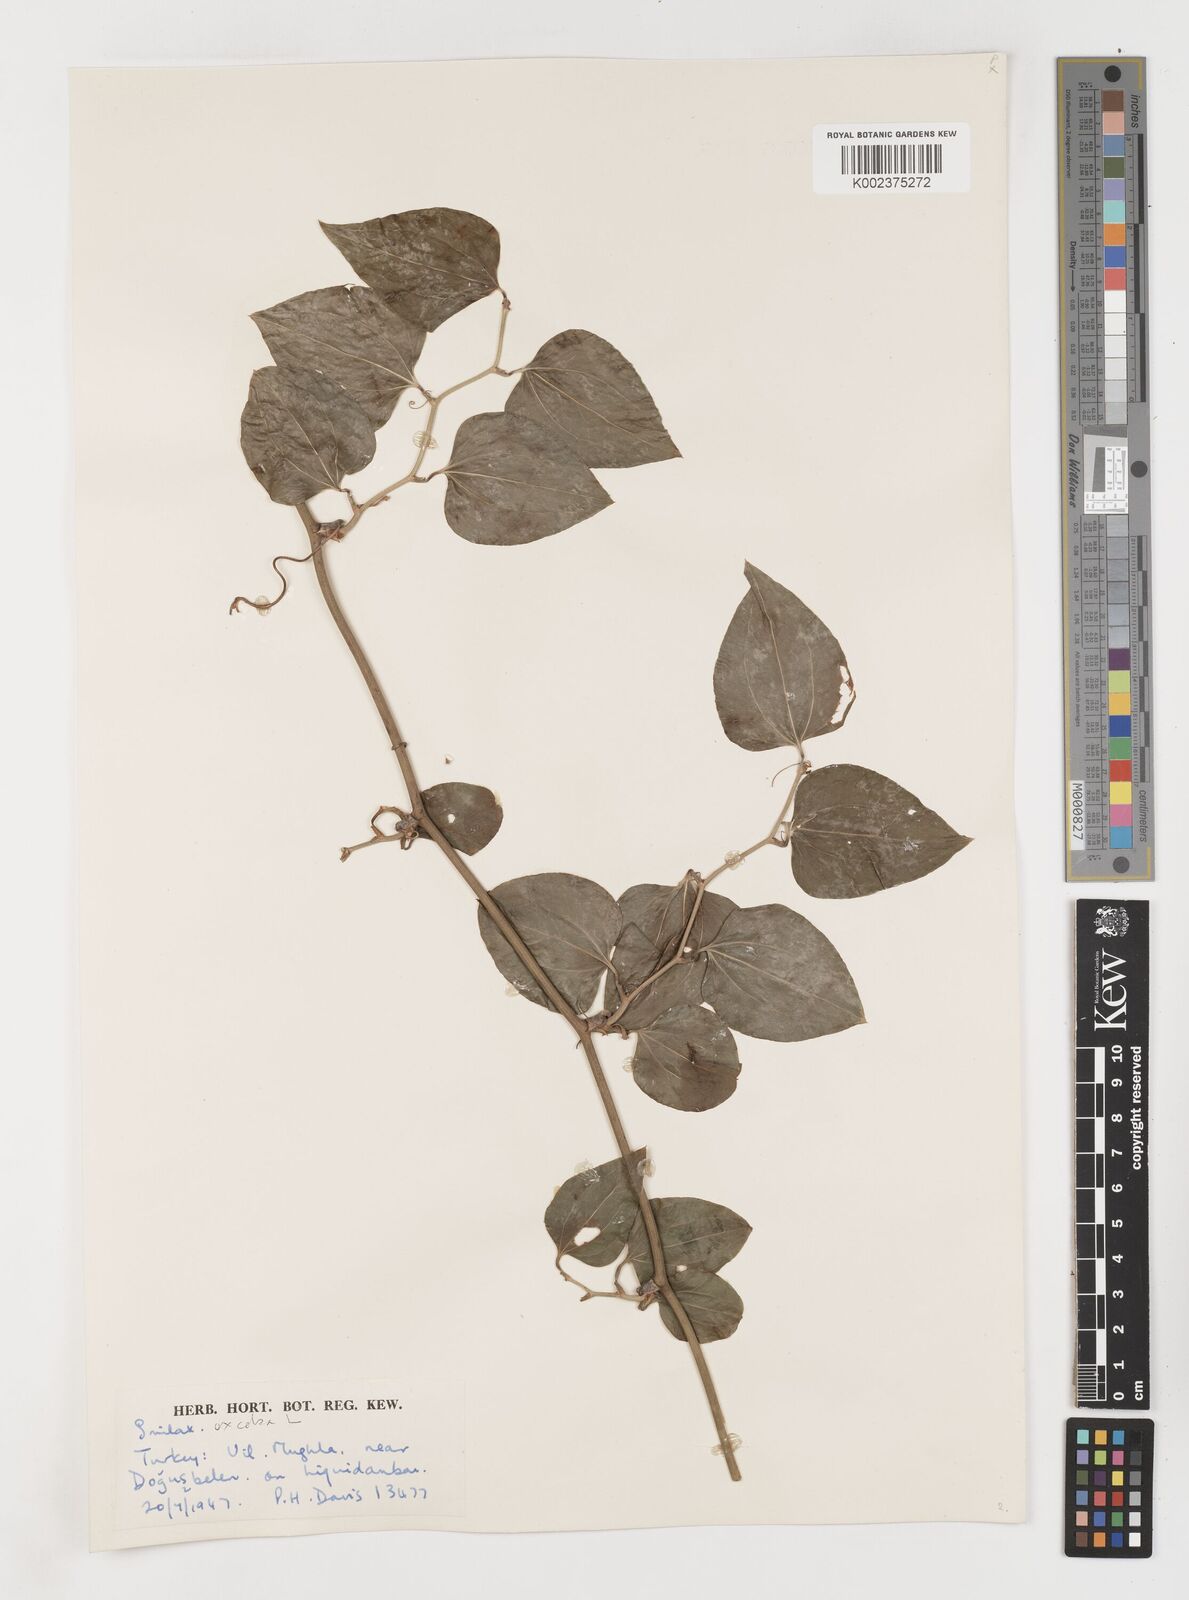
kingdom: Plantae
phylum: Tracheophyta
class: Liliopsida
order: Liliales
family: Smilacaceae
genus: Smilax
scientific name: Smilax excelsa
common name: Larger smilax
